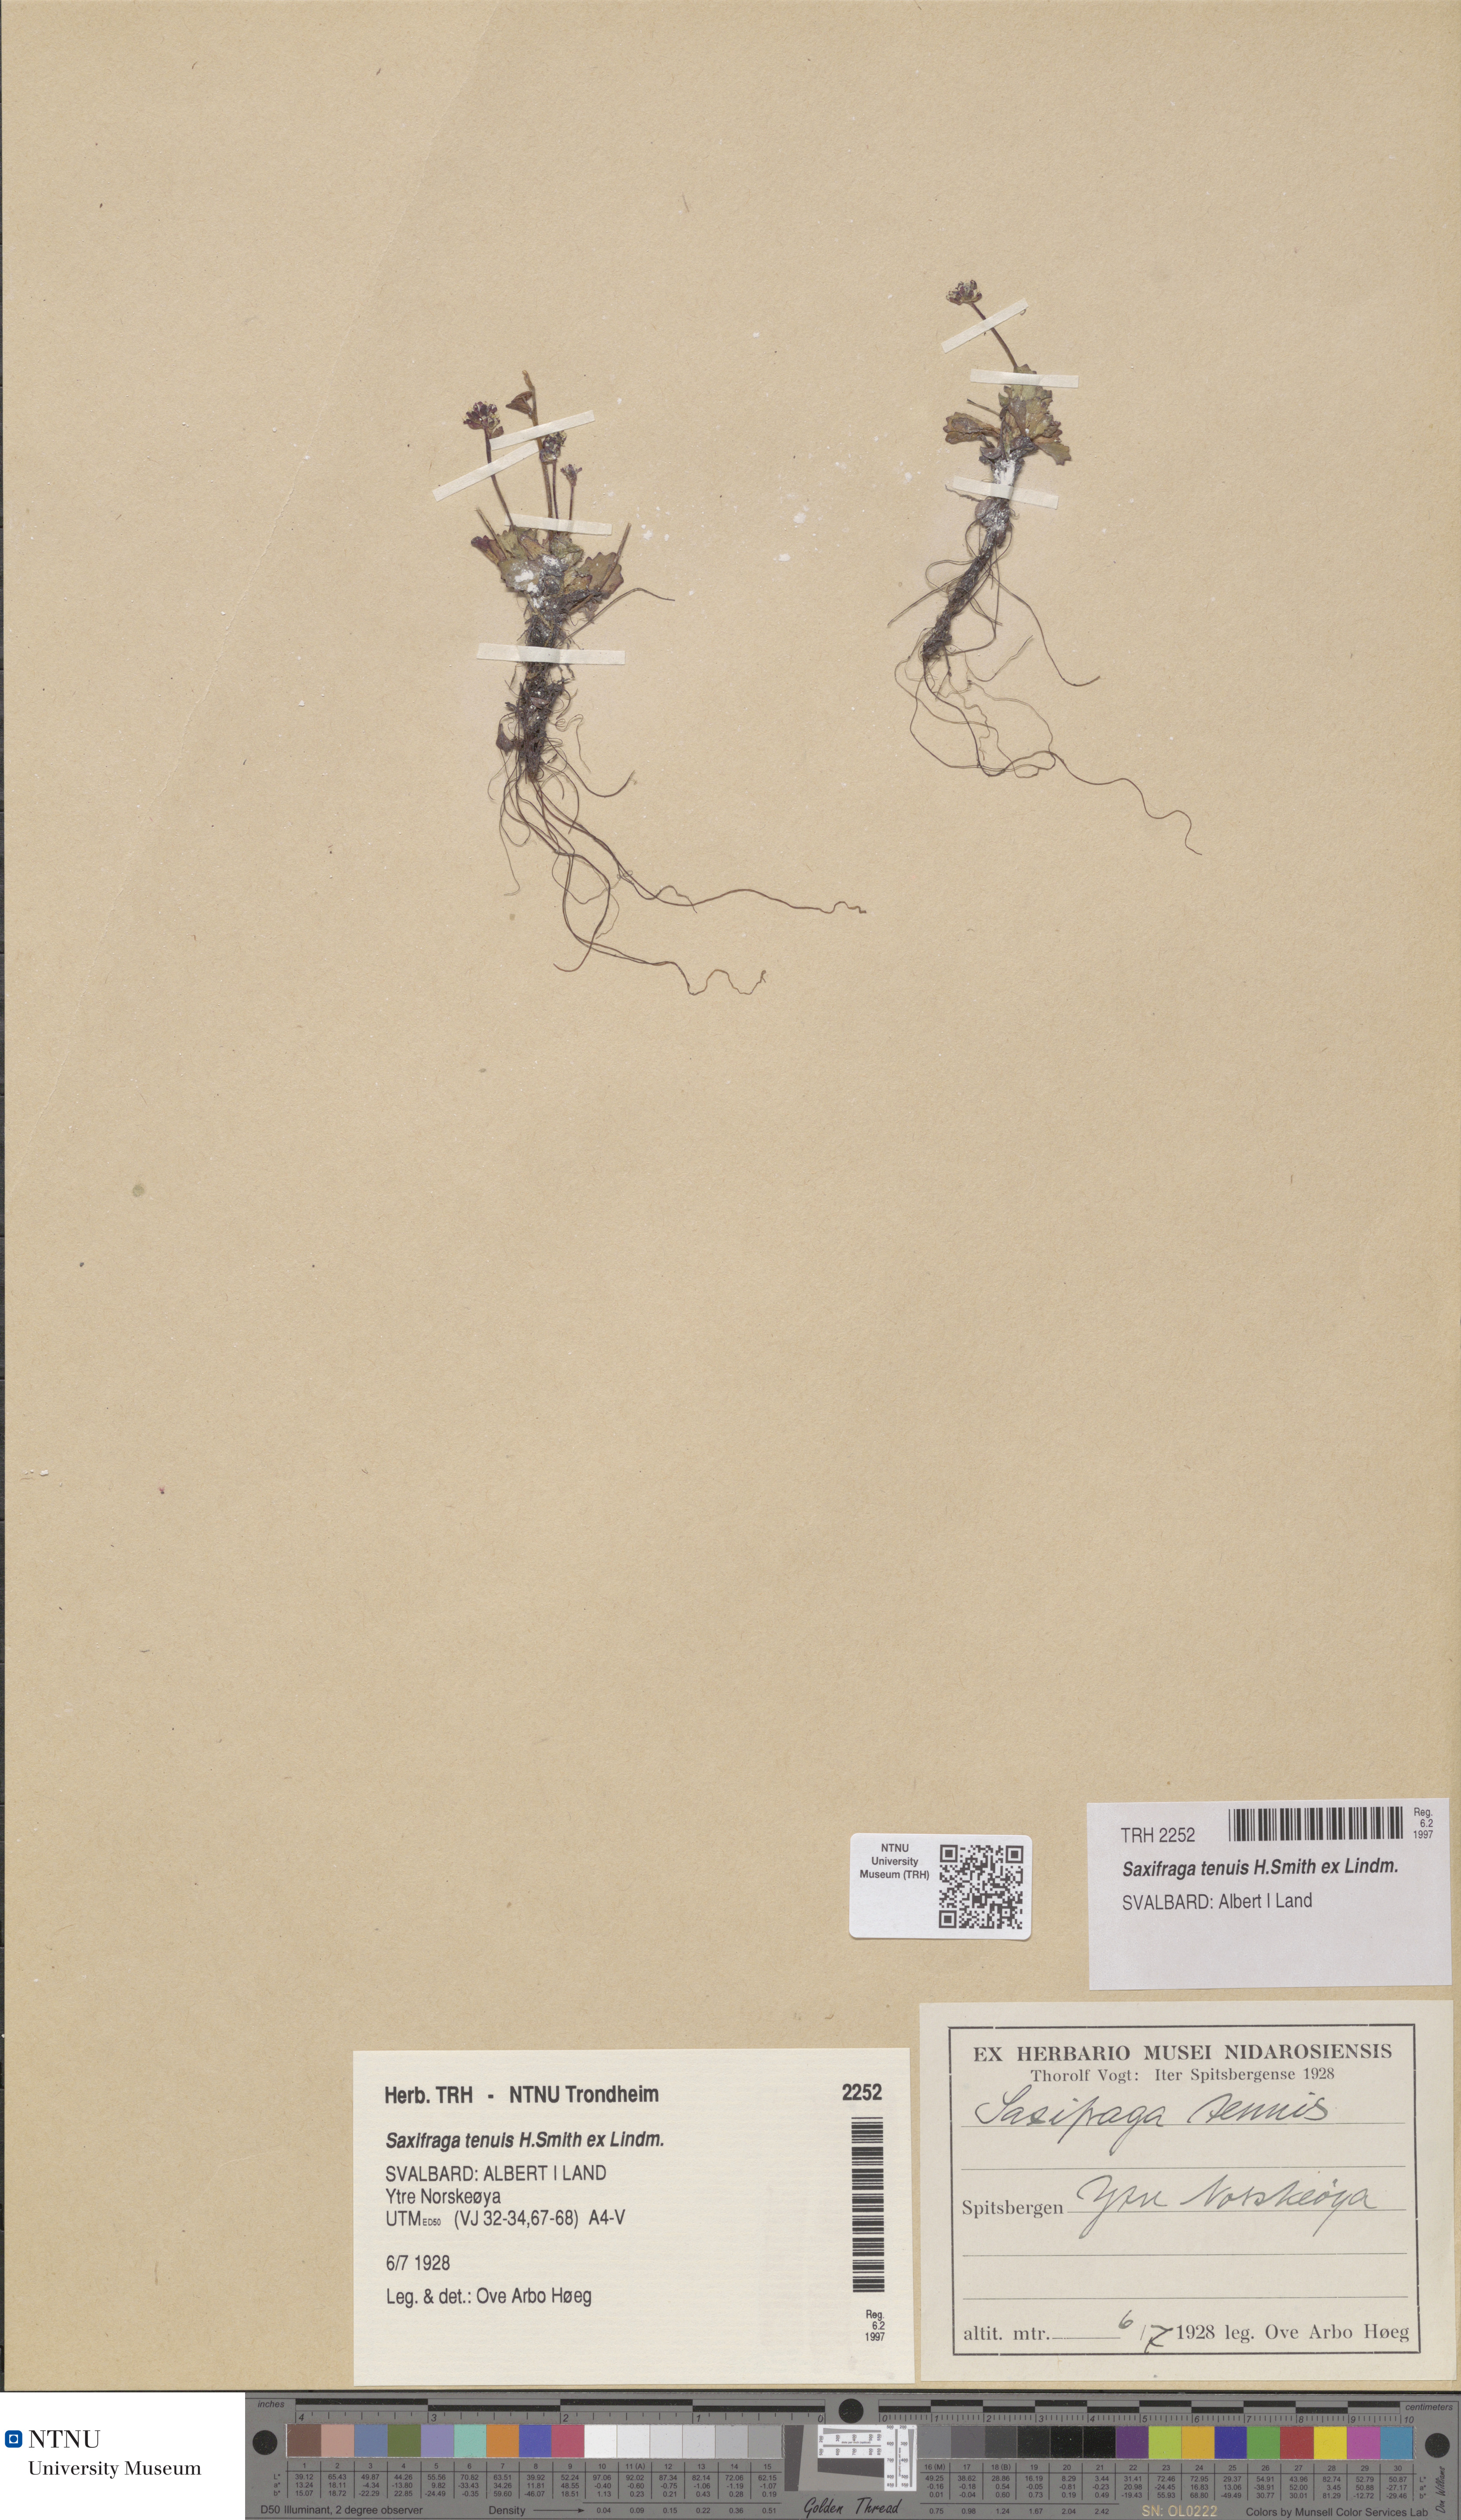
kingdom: Plantae
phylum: Tracheophyta
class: Magnoliopsida
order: Saxifragales
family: Saxifragaceae
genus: Micranthes
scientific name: Micranthes tenuis
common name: Ottertail pass saxifrage
